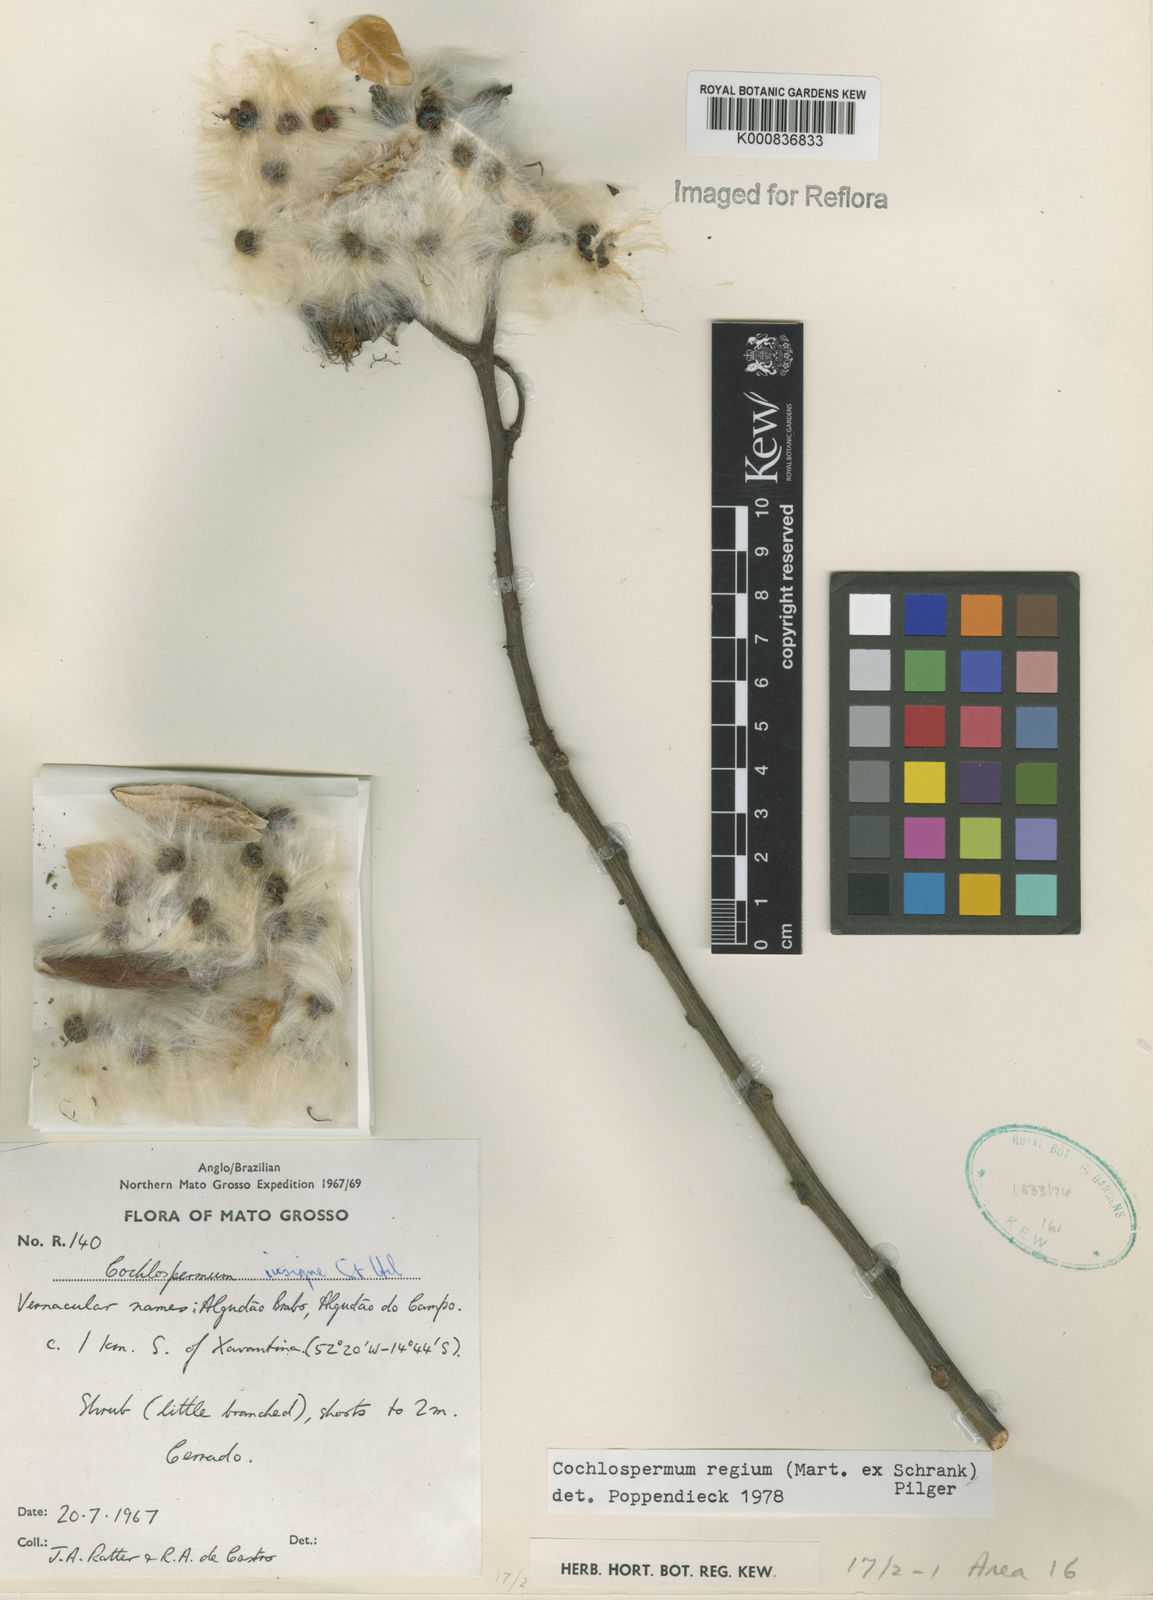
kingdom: Plantae
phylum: Tracheophyta
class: Magnoliopsida
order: Malvales
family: Cochlospermaceae
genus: Cochlospermum
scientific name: Cochlospermum regium
